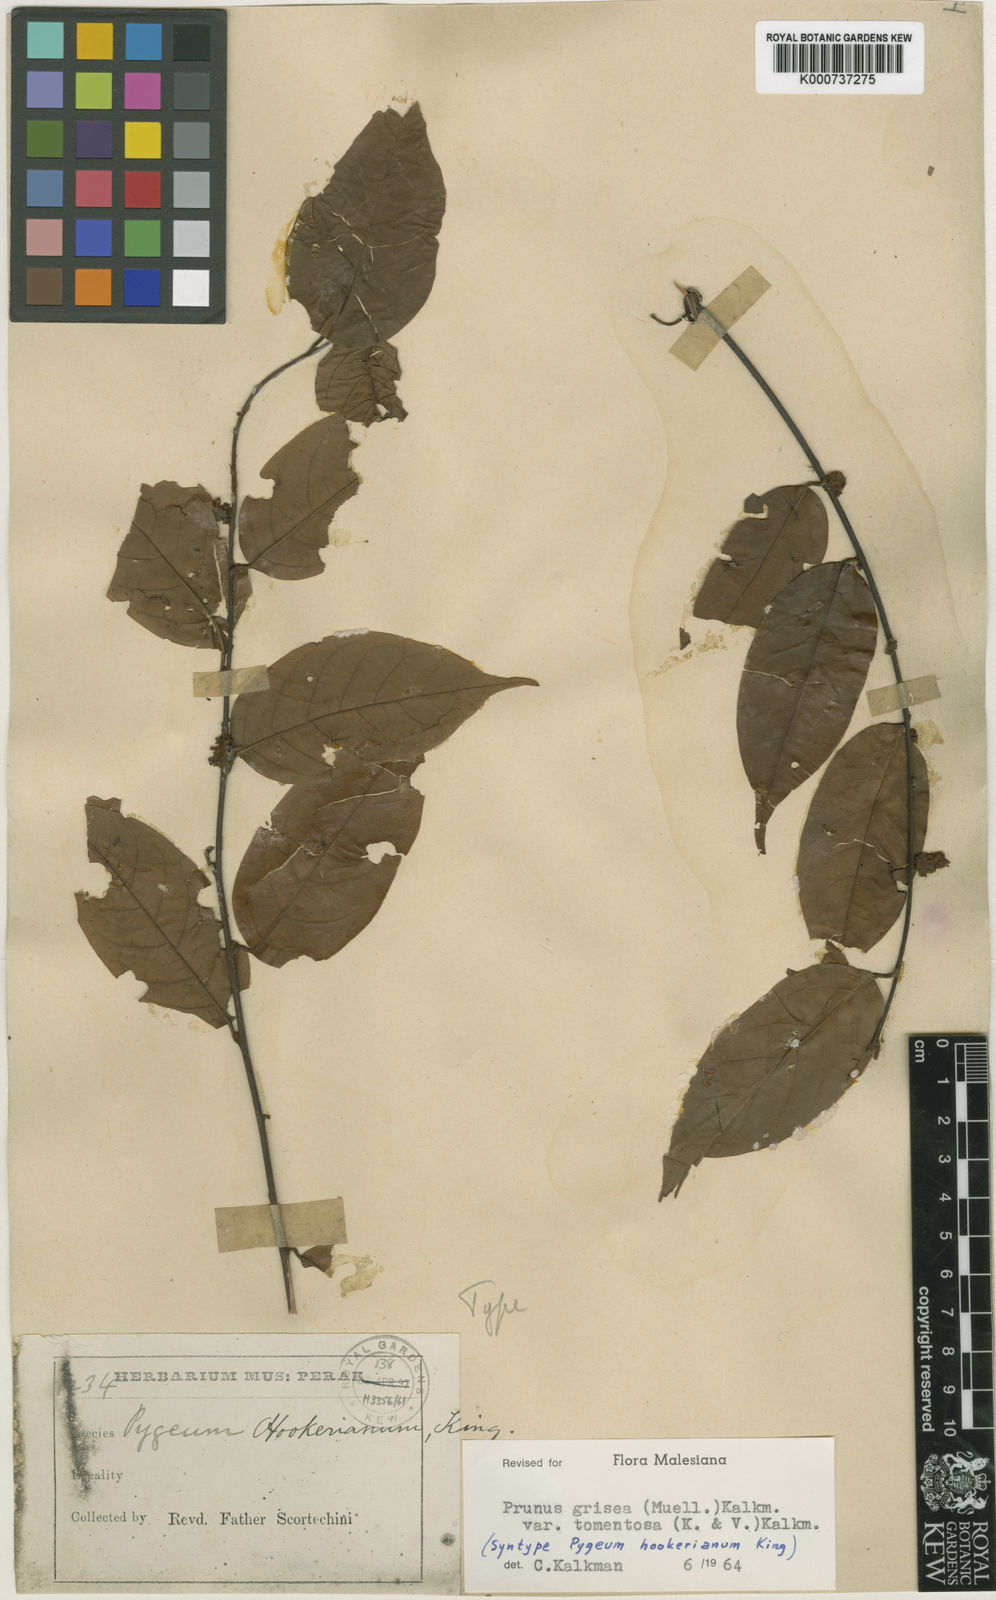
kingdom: Plantae
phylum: Tracheophyta
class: Magnoliopsida
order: Rosales
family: Rosaceae
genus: Prunus
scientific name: Prunus
